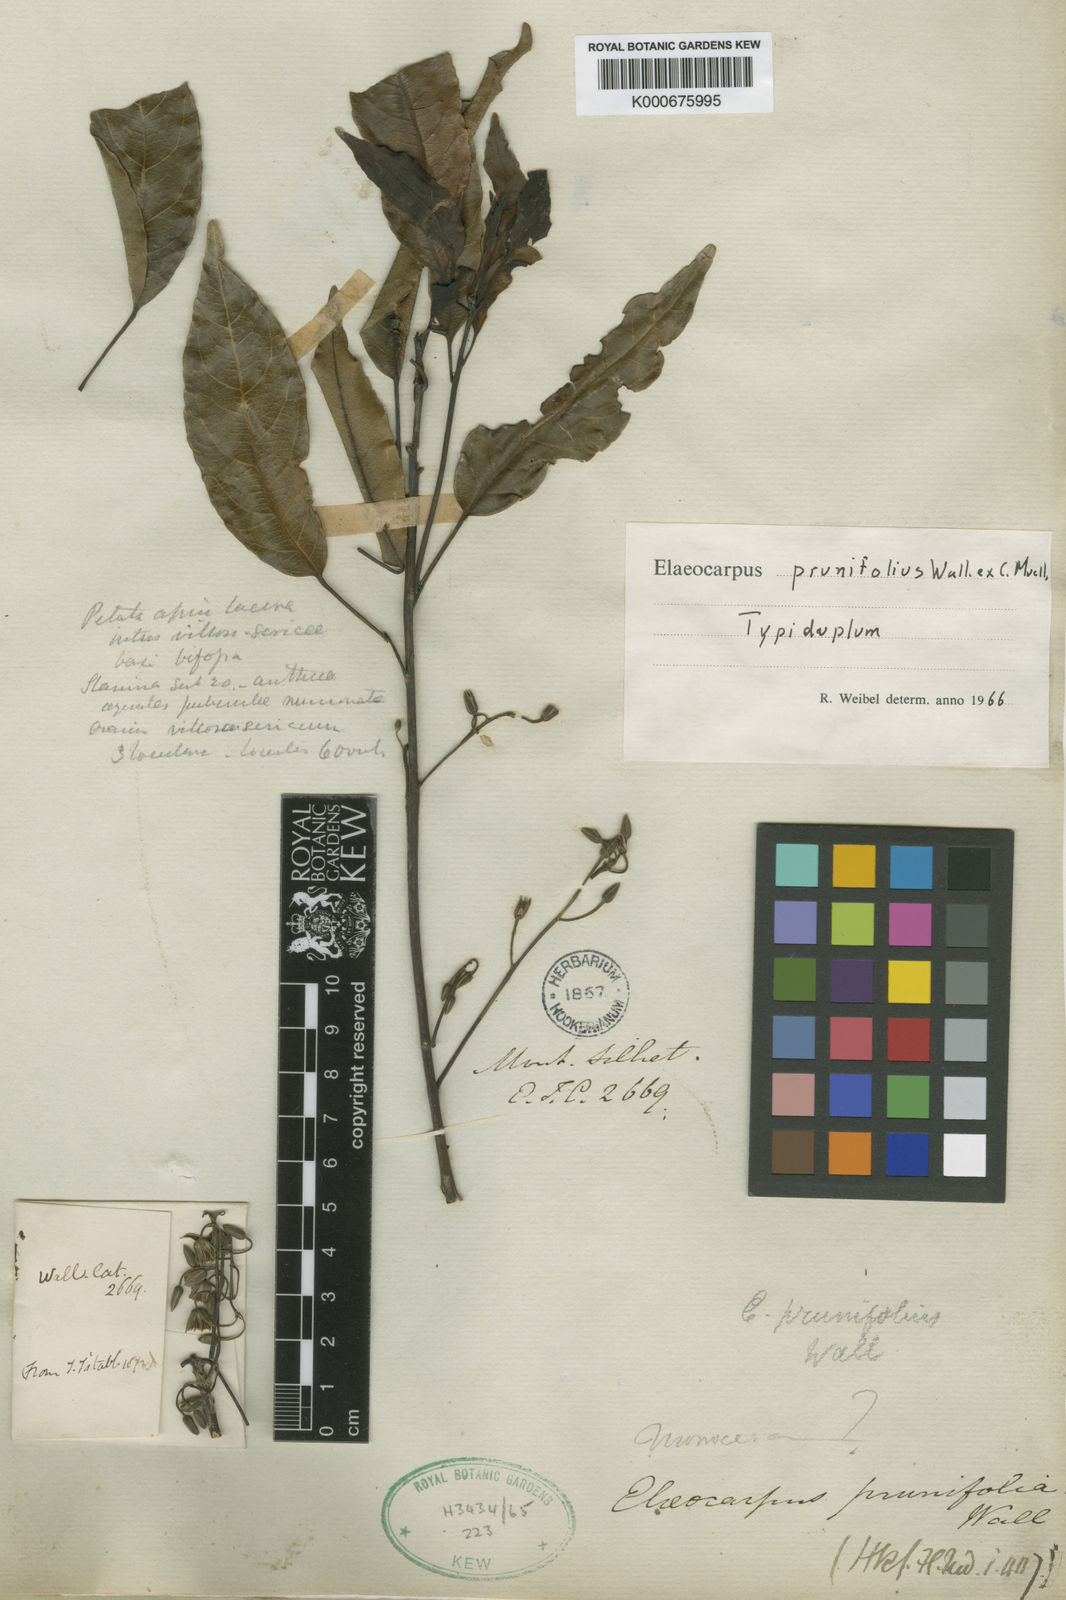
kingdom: Plantae
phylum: Tracheophyta
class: Magnoliopsida
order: Oxalidales
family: Elaeocarpaceae
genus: Elaeocarpus
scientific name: Elaeocarpus
